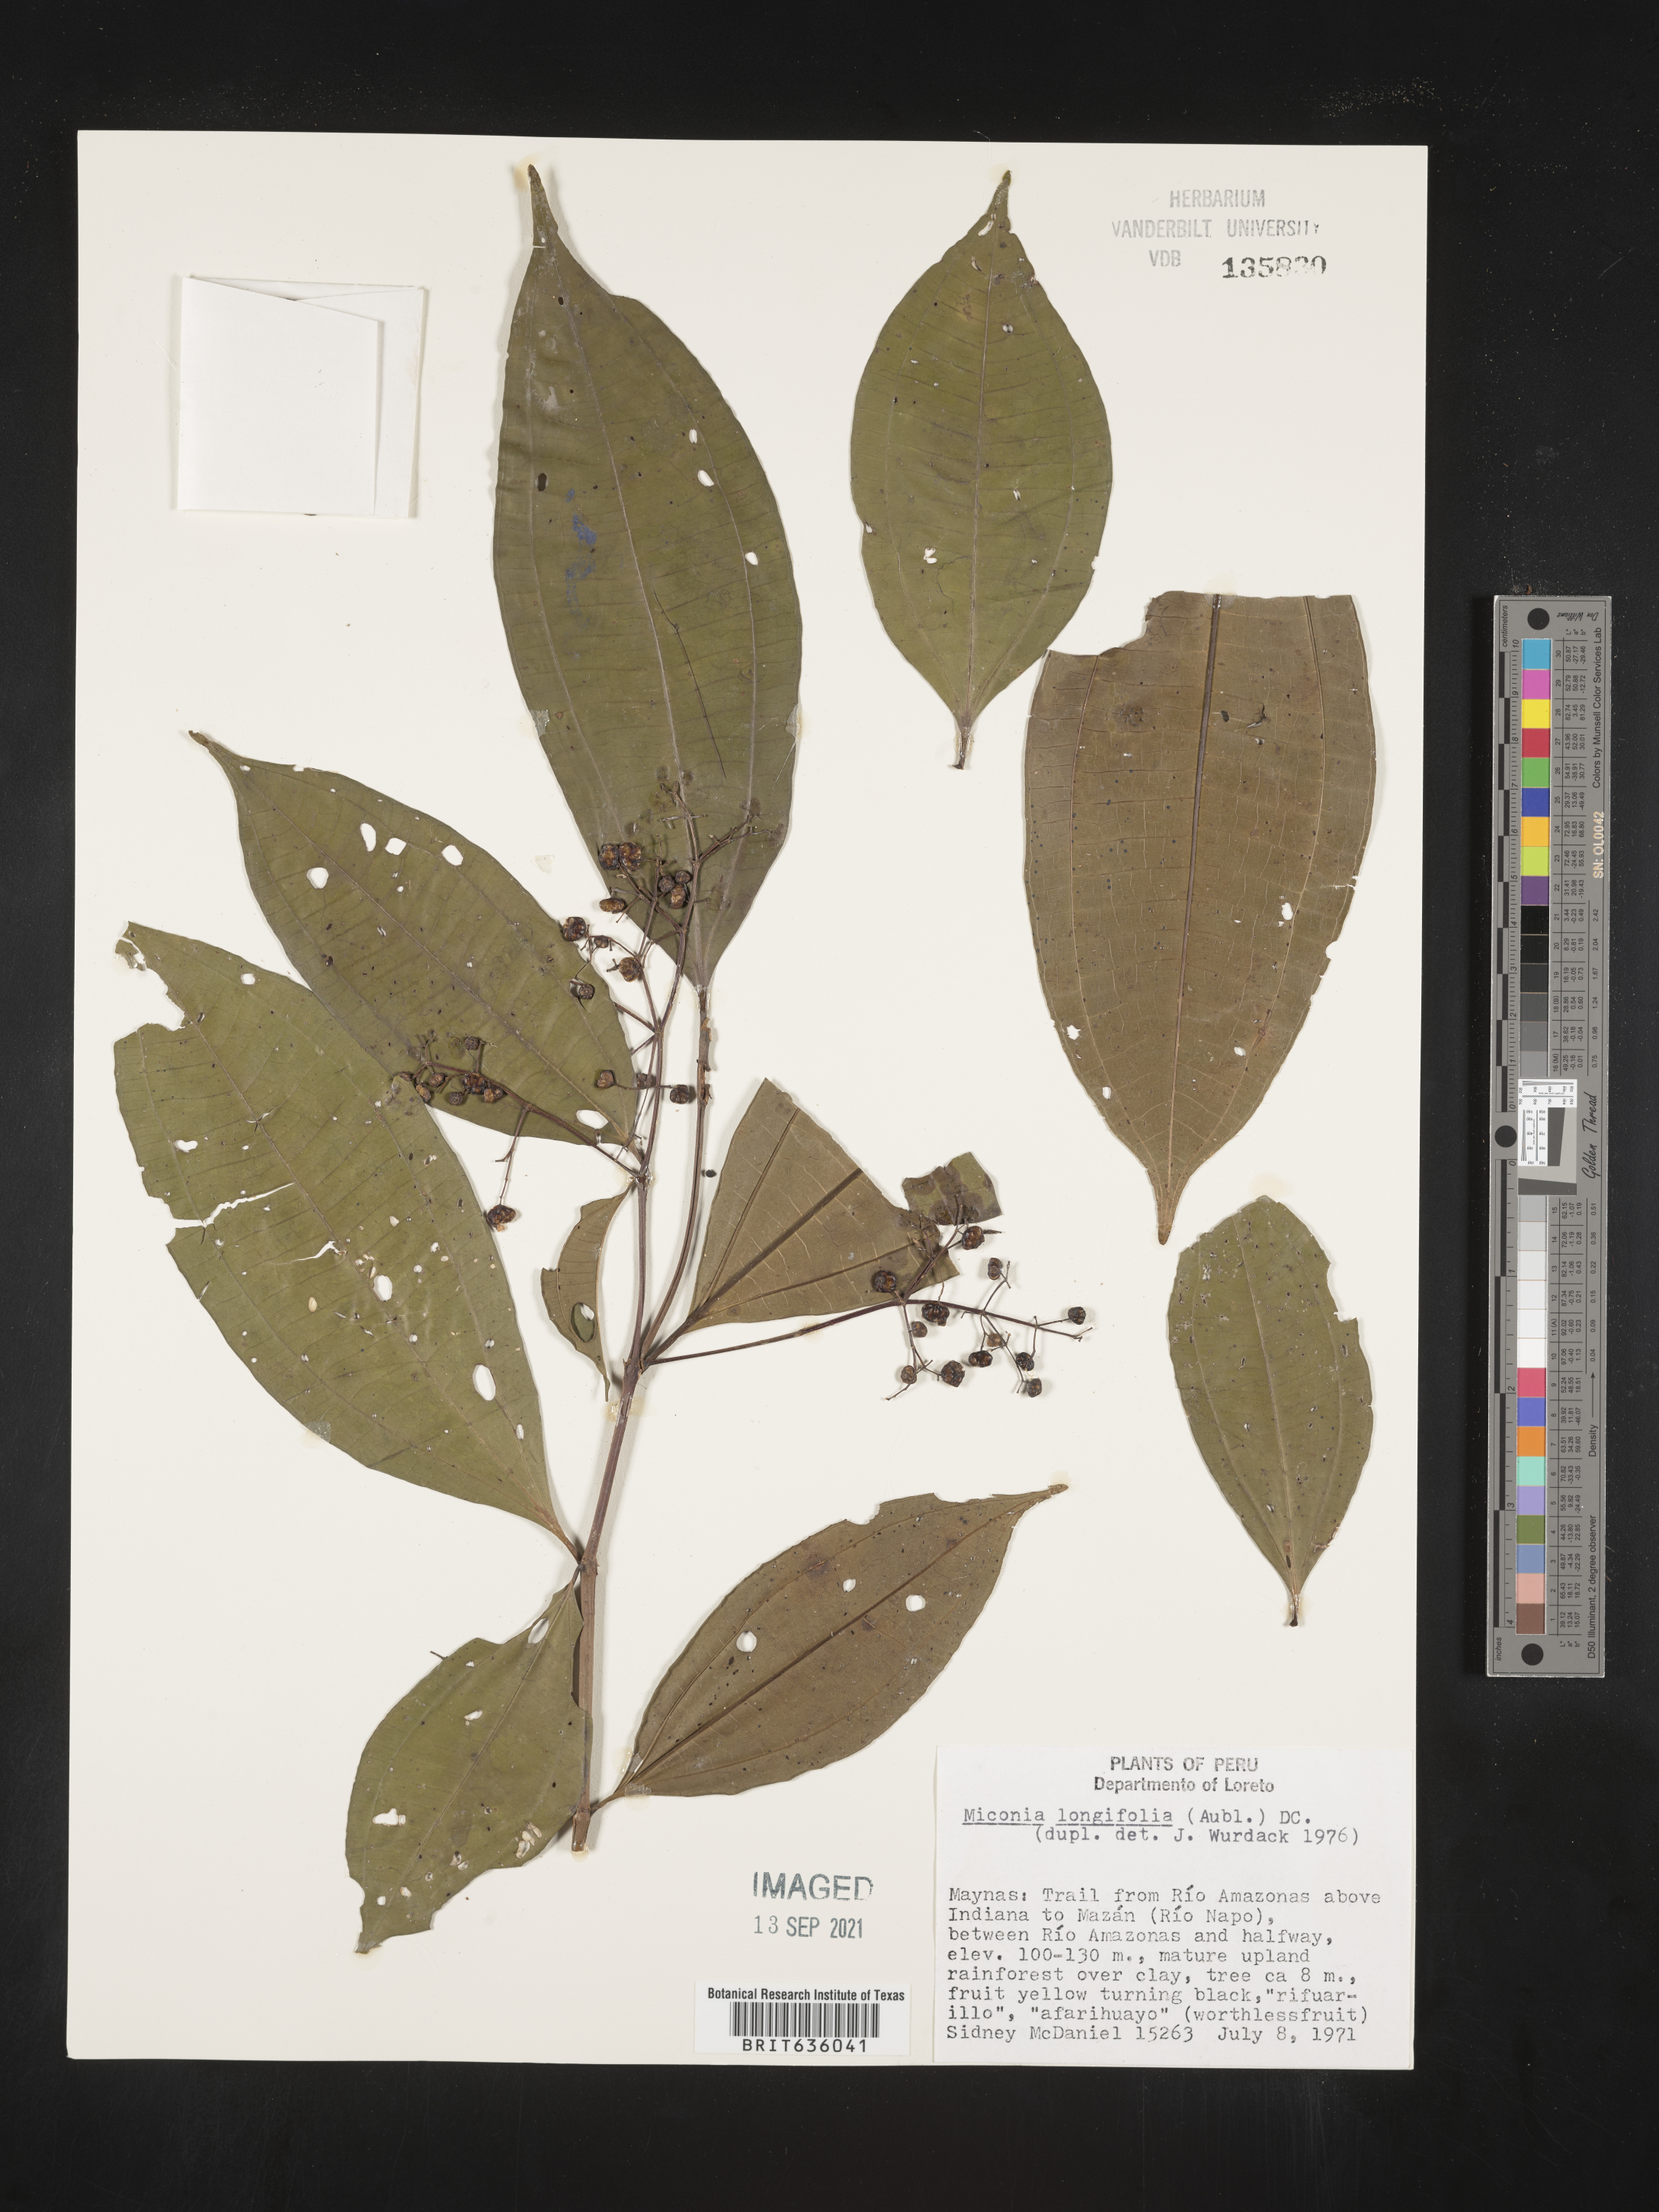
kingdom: Plantae
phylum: Tracheophyta
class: Magnoliopsida
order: Myrtales
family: Melastomataceae
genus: Miconia
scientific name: Miconia
